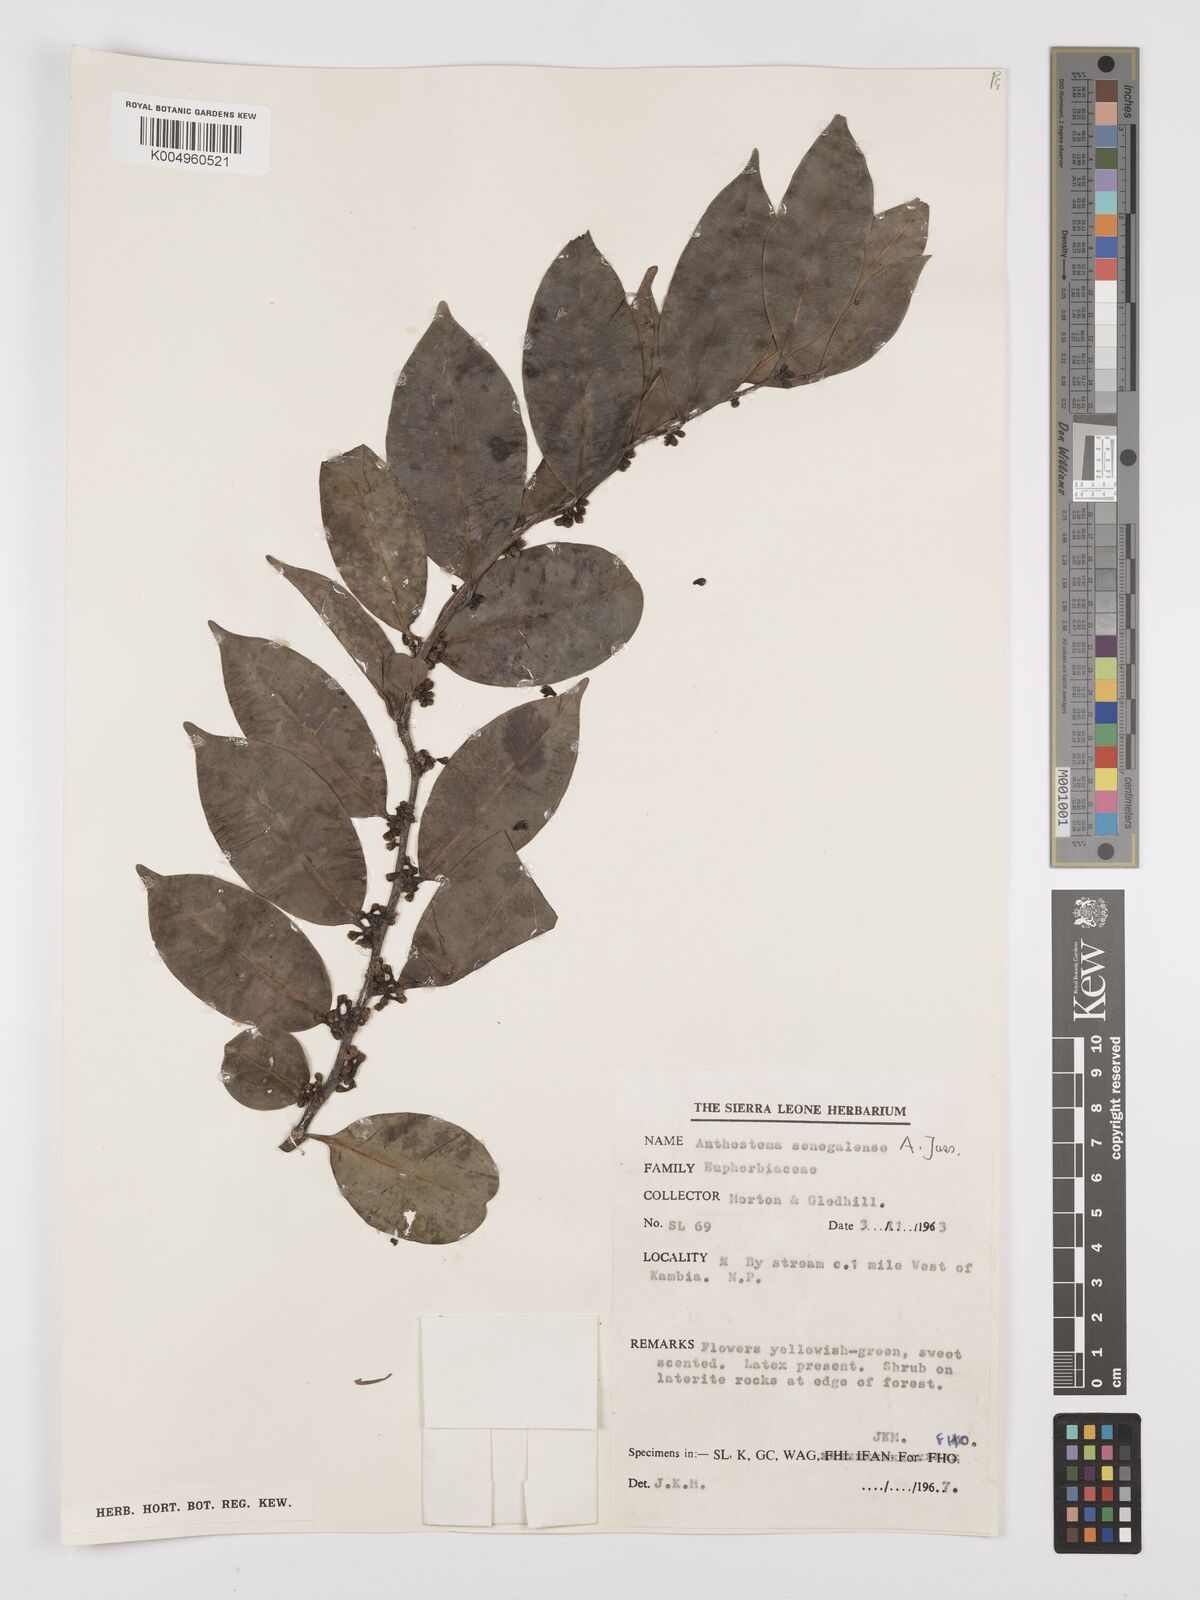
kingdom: Plantae
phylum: Tracheophyta
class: Magnoliopsida
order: Malpighiales
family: Euphorbiaceae
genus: Anthostema
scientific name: Anthostema senegalense
